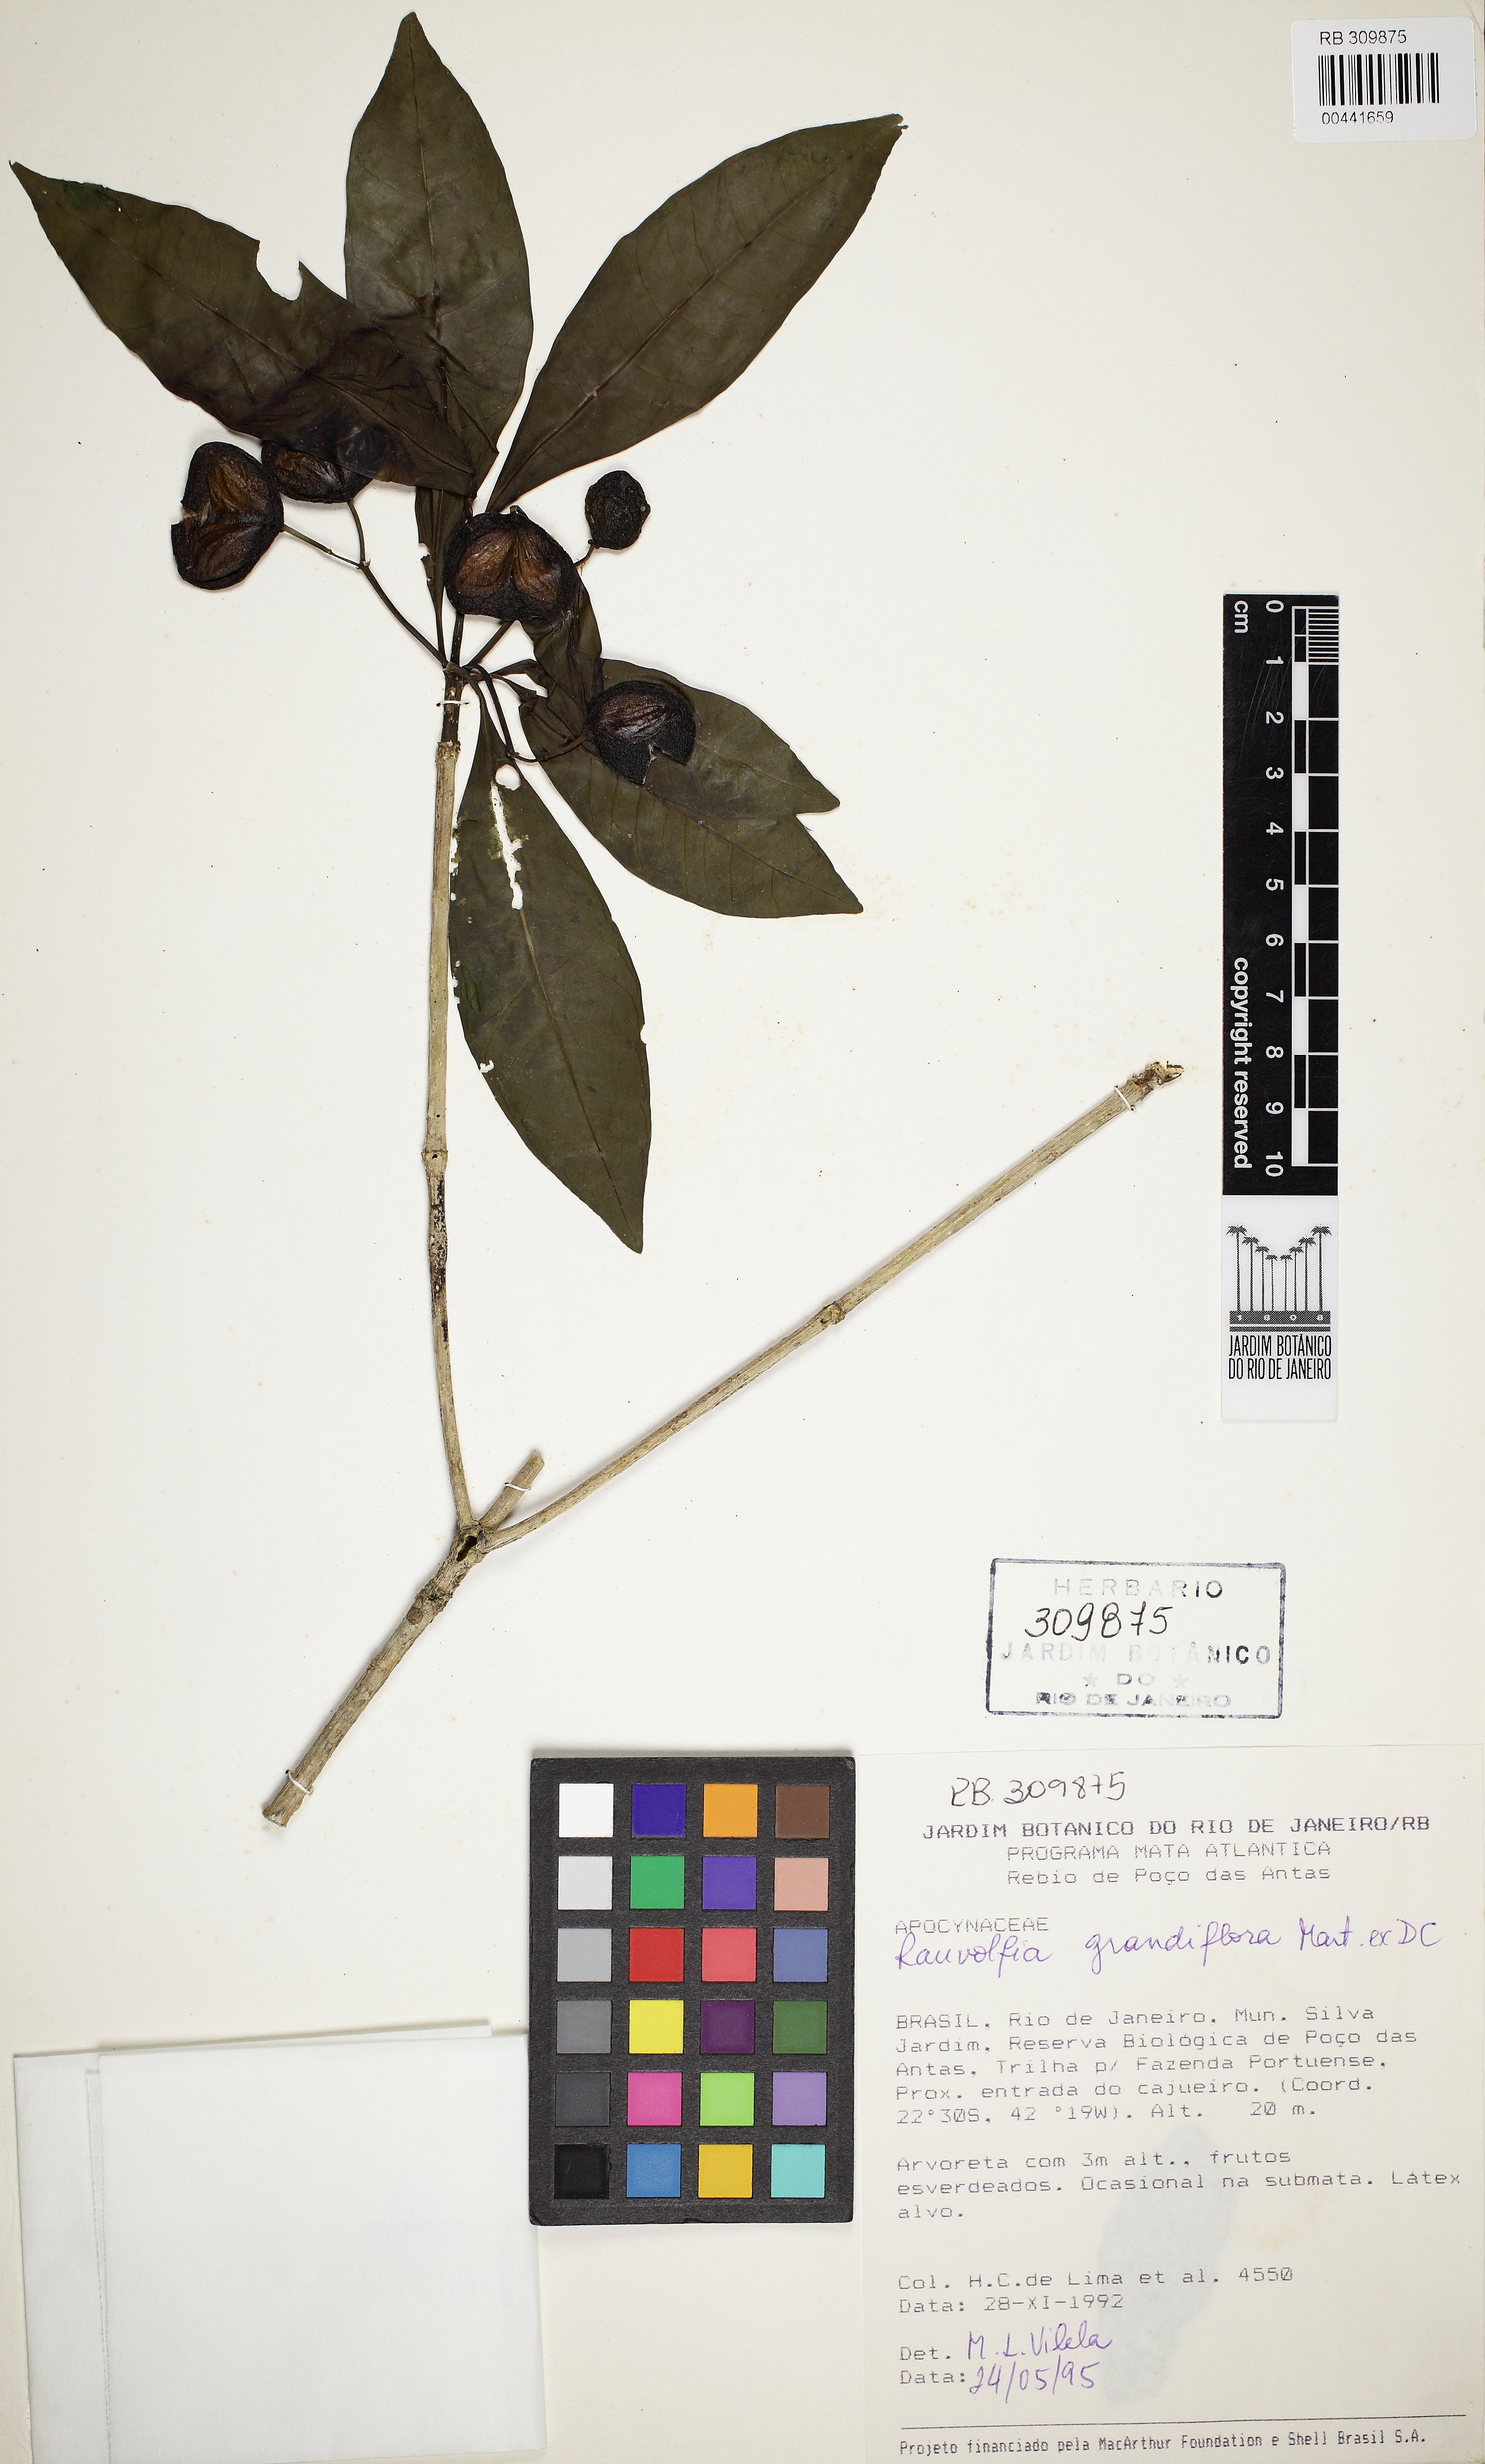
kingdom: Plantae
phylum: Tracheophyta
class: Magnoliopsida
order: Gentianales
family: Apocynaceae
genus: Rauvolfia
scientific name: Rauvolfia grandiflora
